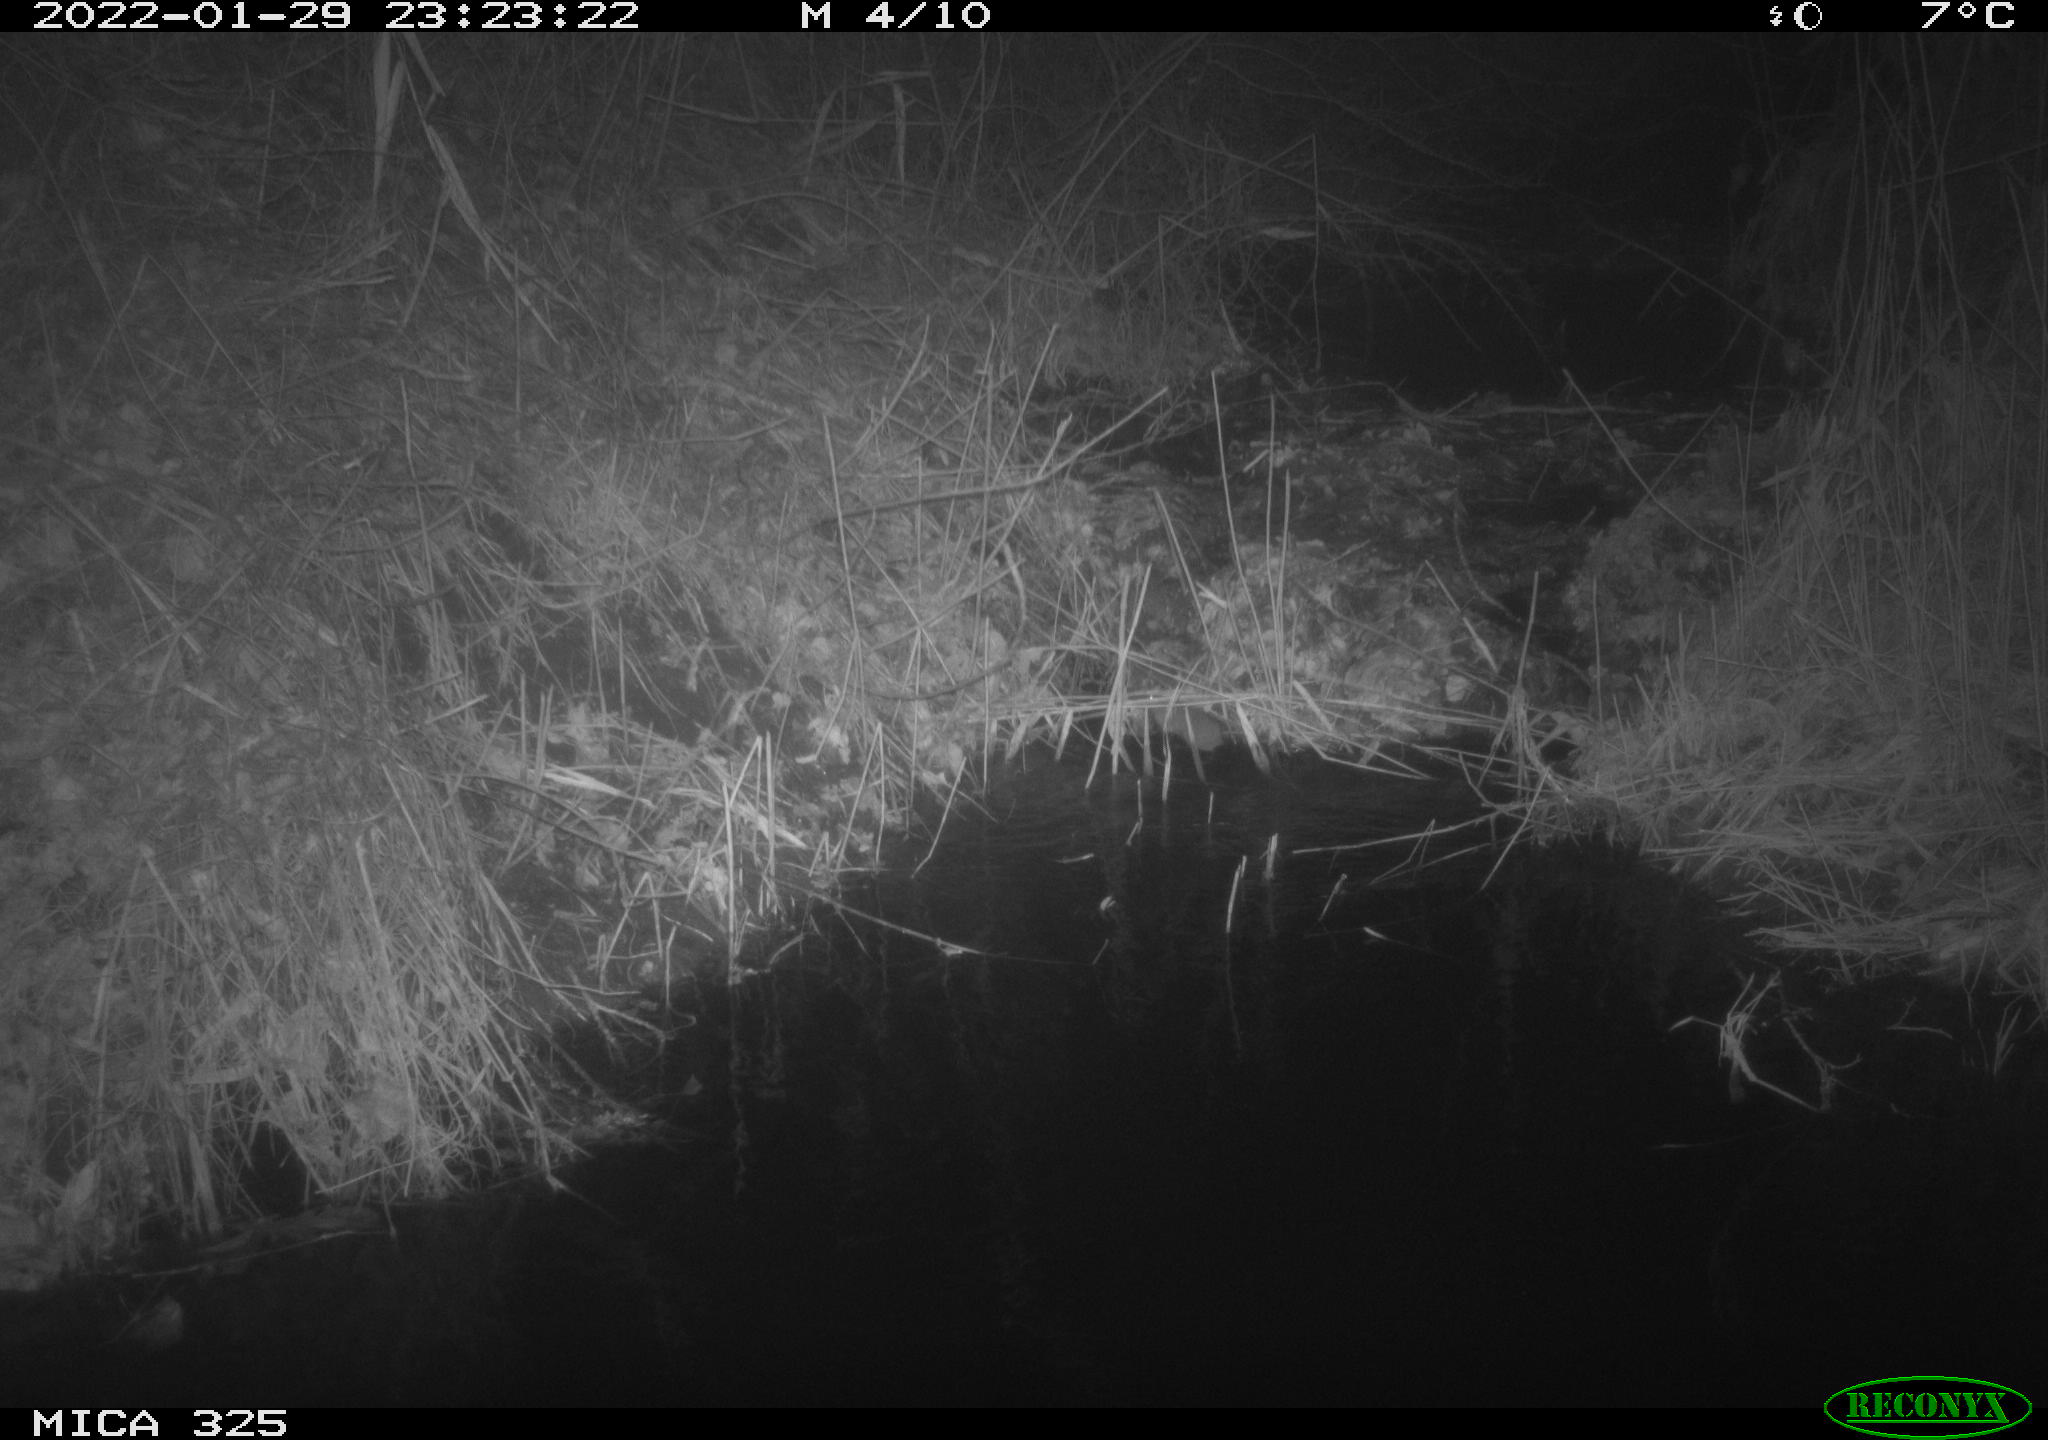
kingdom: Animalia
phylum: Chordata
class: Mammalia
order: Rodentia
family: Muridae
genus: Rattus
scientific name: Rattus norvegicus
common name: Brown rat
